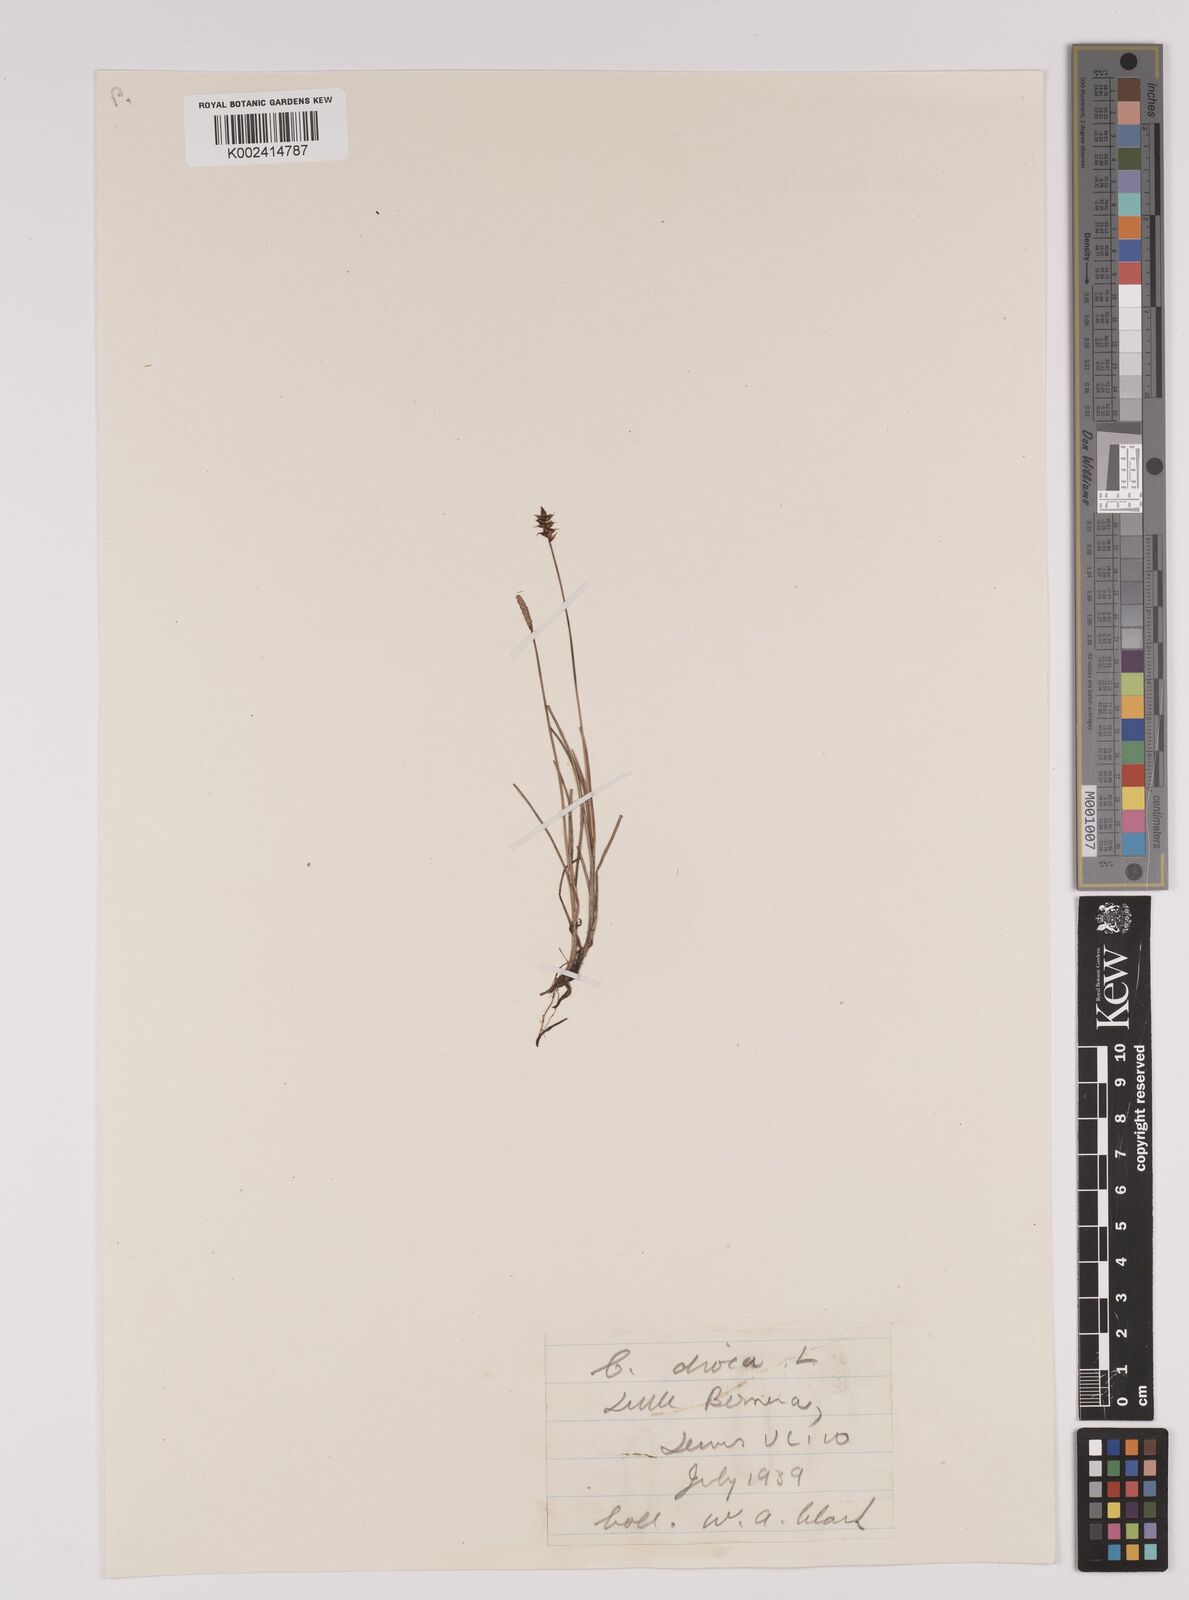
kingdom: Plantae
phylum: Tracheophyta
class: Liliopsida
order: Poales
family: Cyperaceae
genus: Carex
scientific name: Carex dioica
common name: Dioecious sedge
